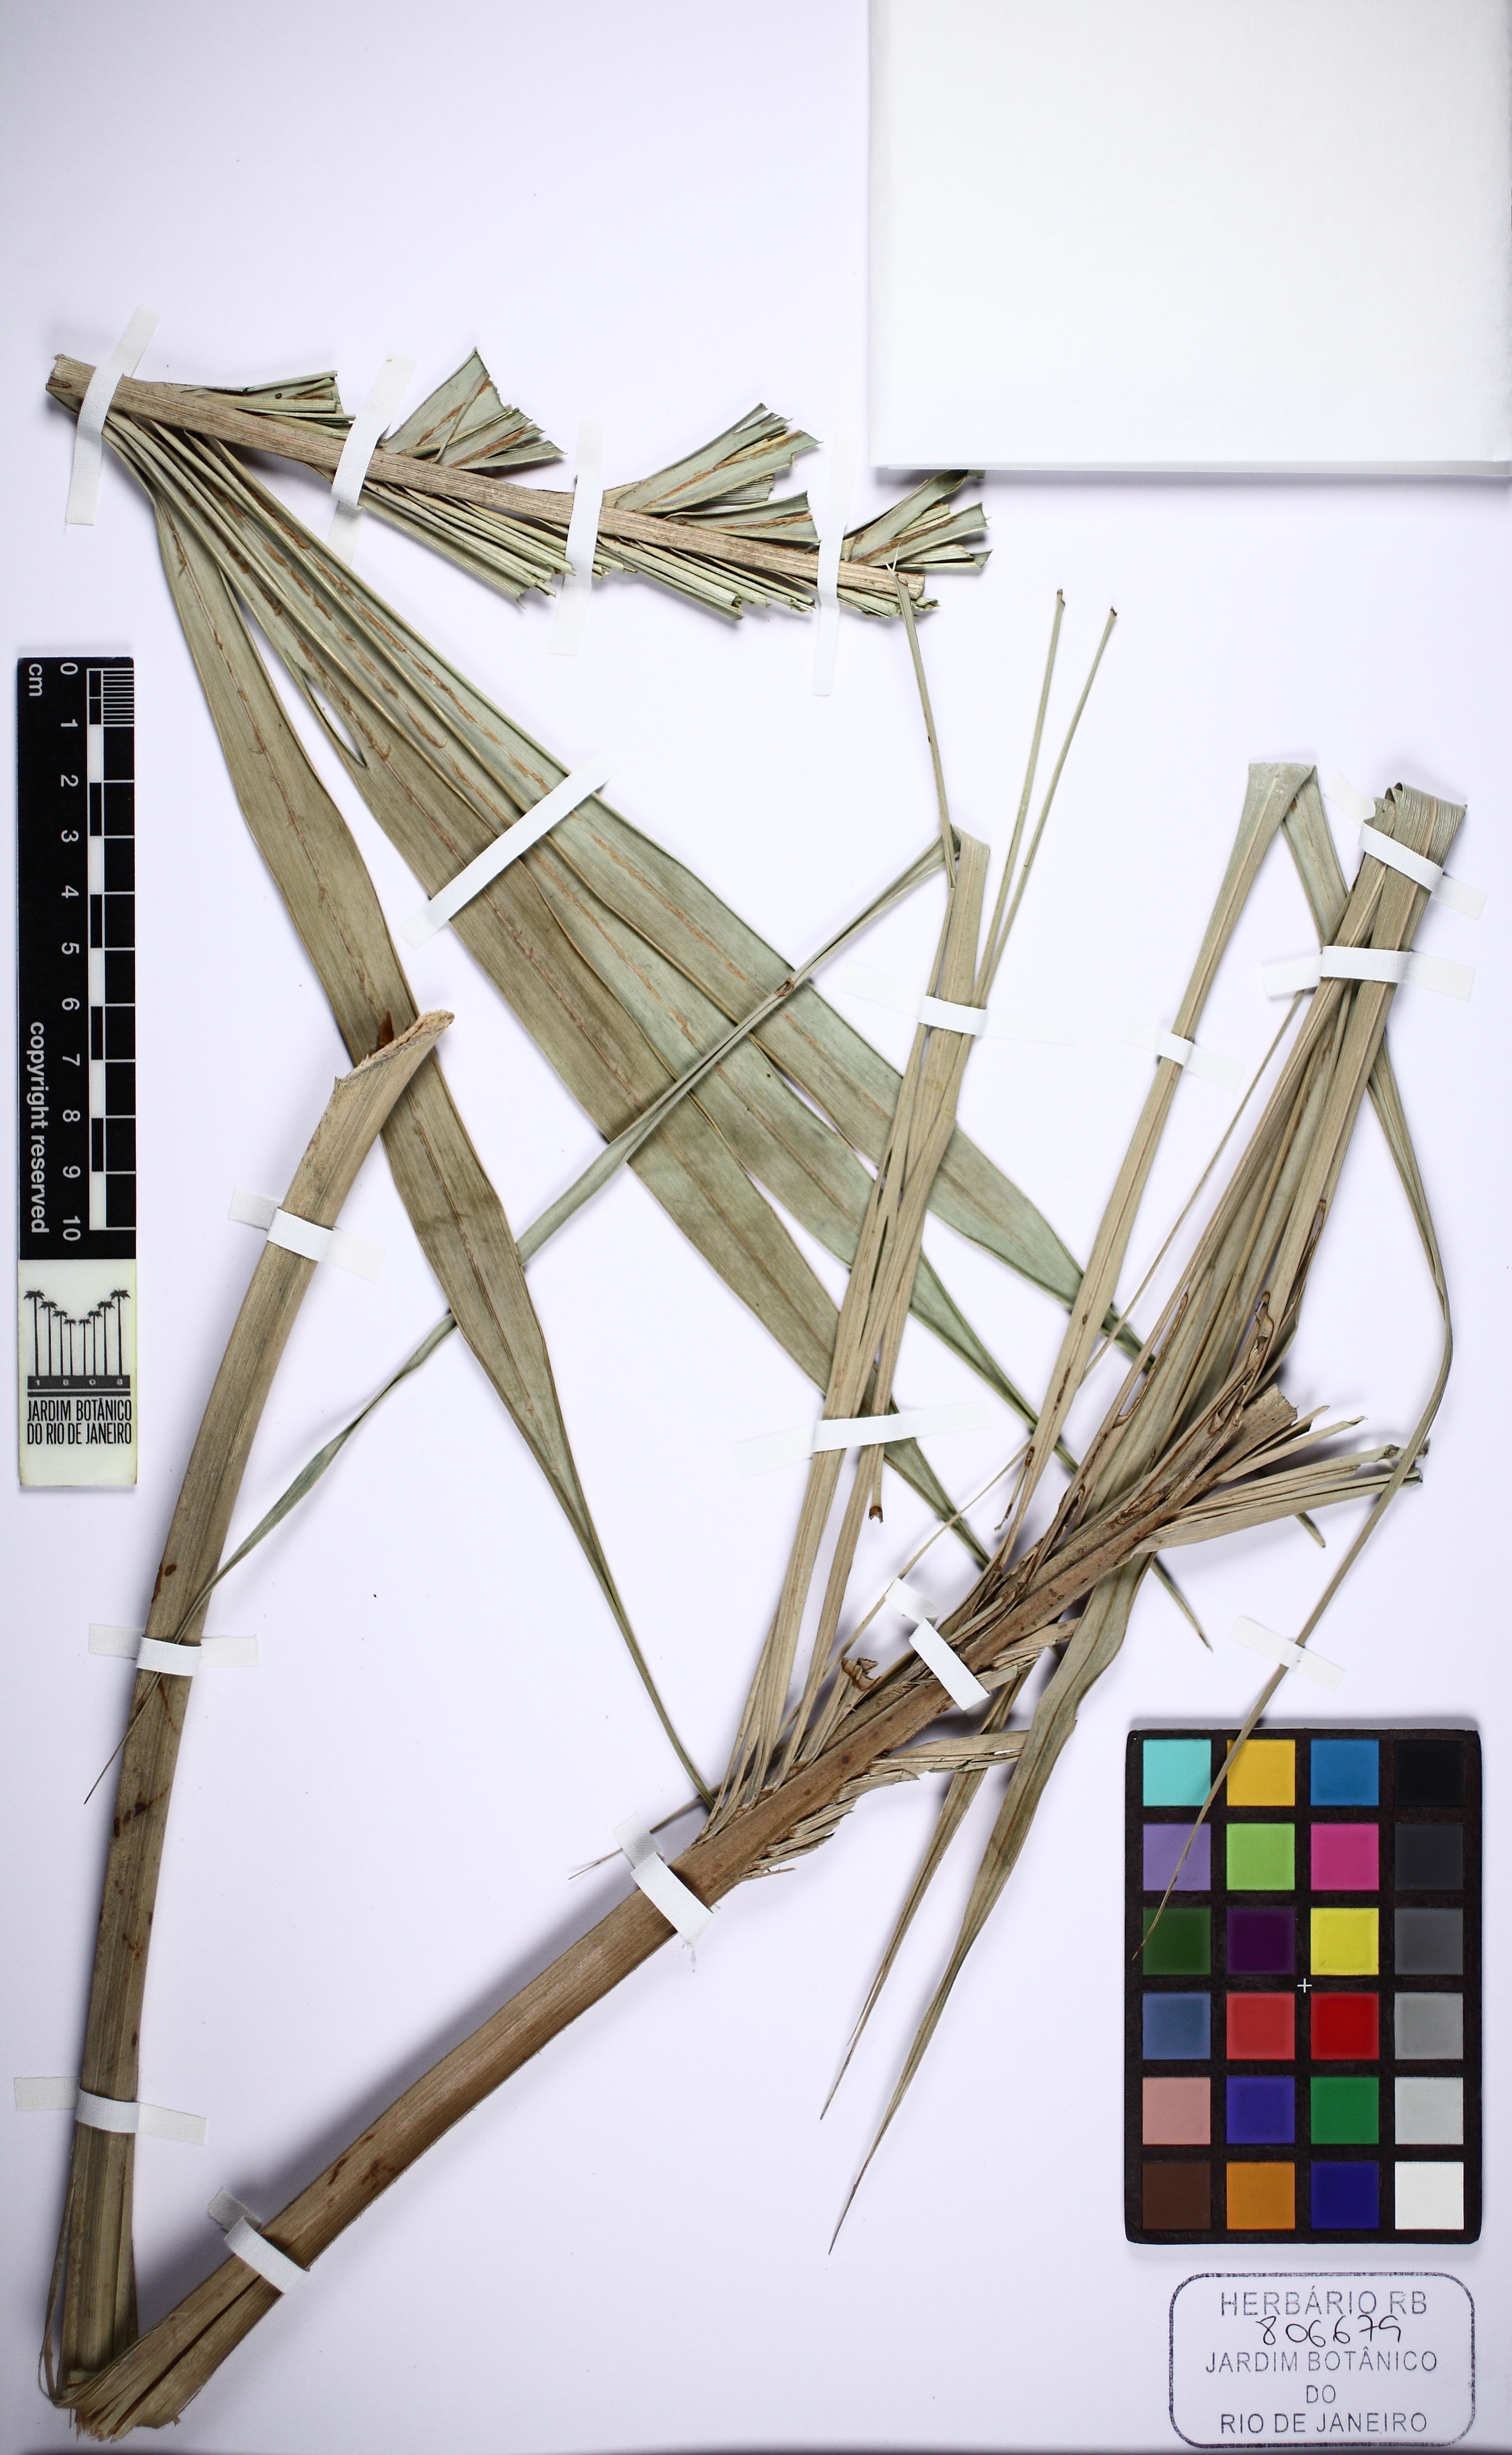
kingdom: Plantae
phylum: Tracheophyta
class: Liliopsida
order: Arecales
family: Arecaceae
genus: Allagoptera
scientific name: Allagoptera arenaria
